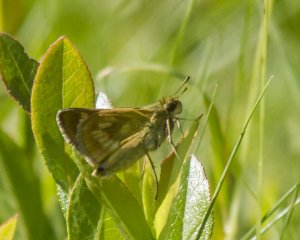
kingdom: Animalia
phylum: Arthropoda
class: Insecta
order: Lepidoptera
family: Hesperiidae
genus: Polites
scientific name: Polites
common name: Long Dash Skipper
